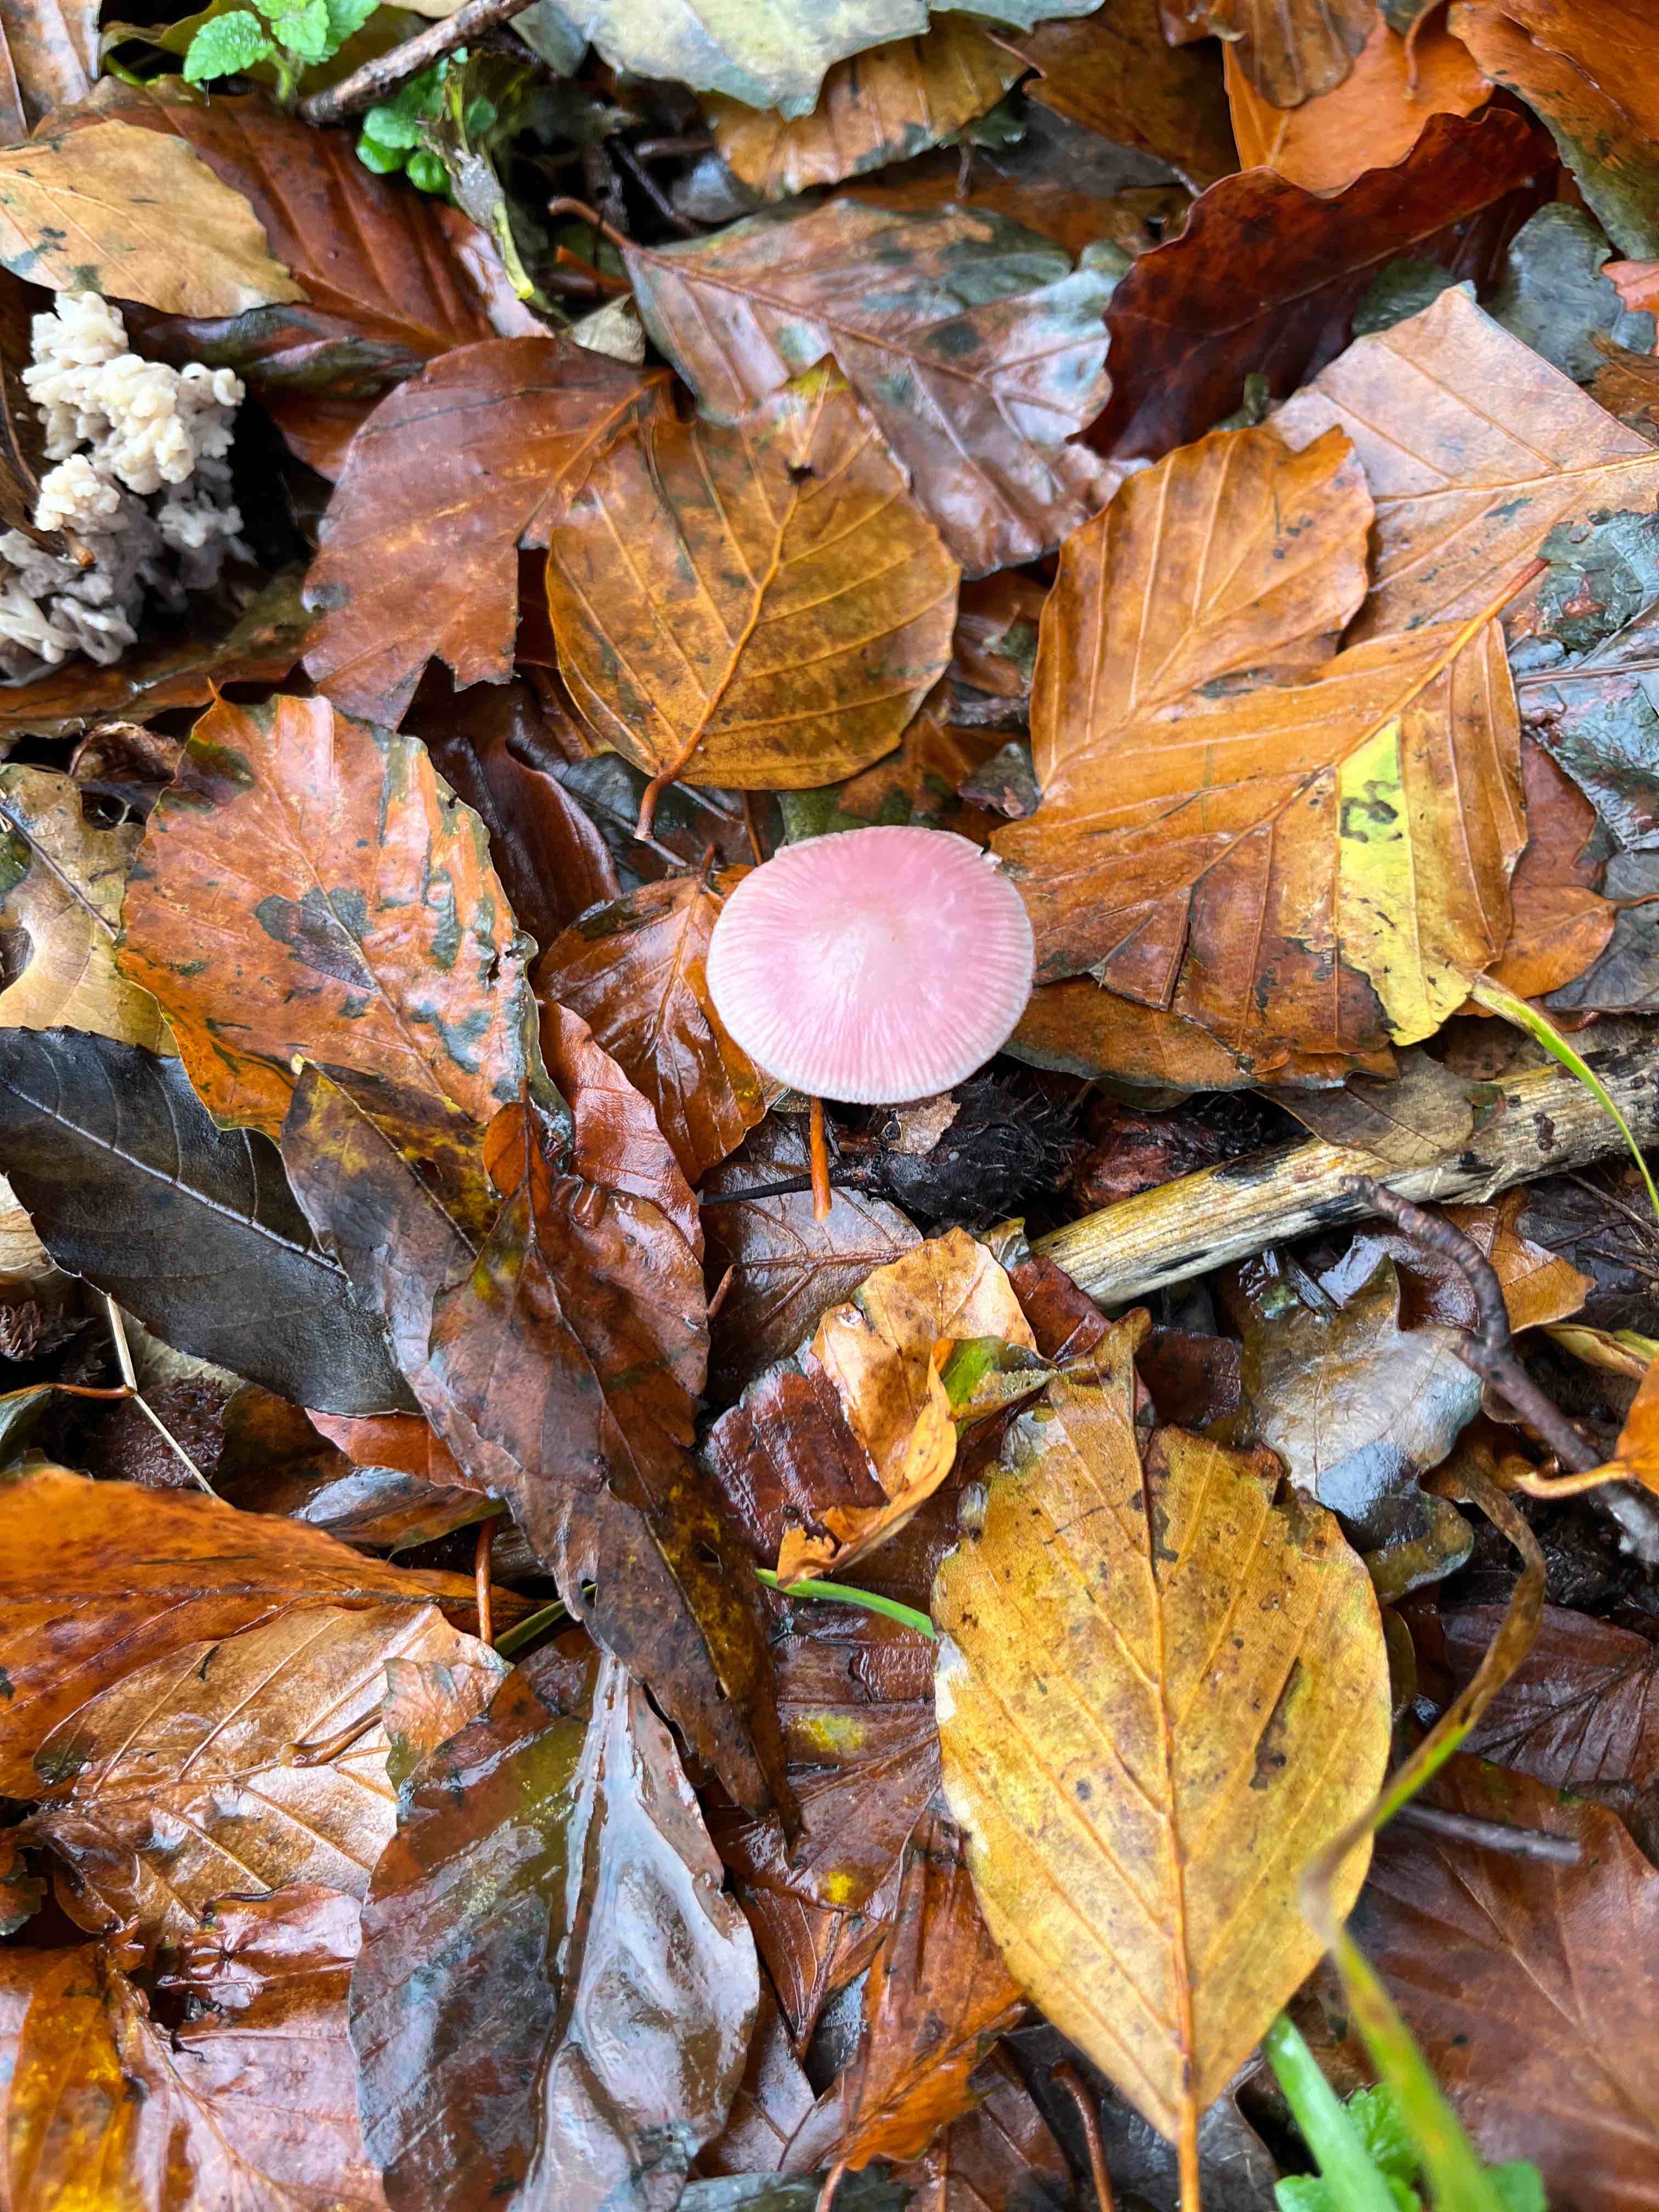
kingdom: Fungi
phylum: Basidiomycota
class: Agaricomycetes
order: Agaricales
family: Mycenaceae
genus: Mycena
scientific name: Mycena rosea
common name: rosa huesvamp
